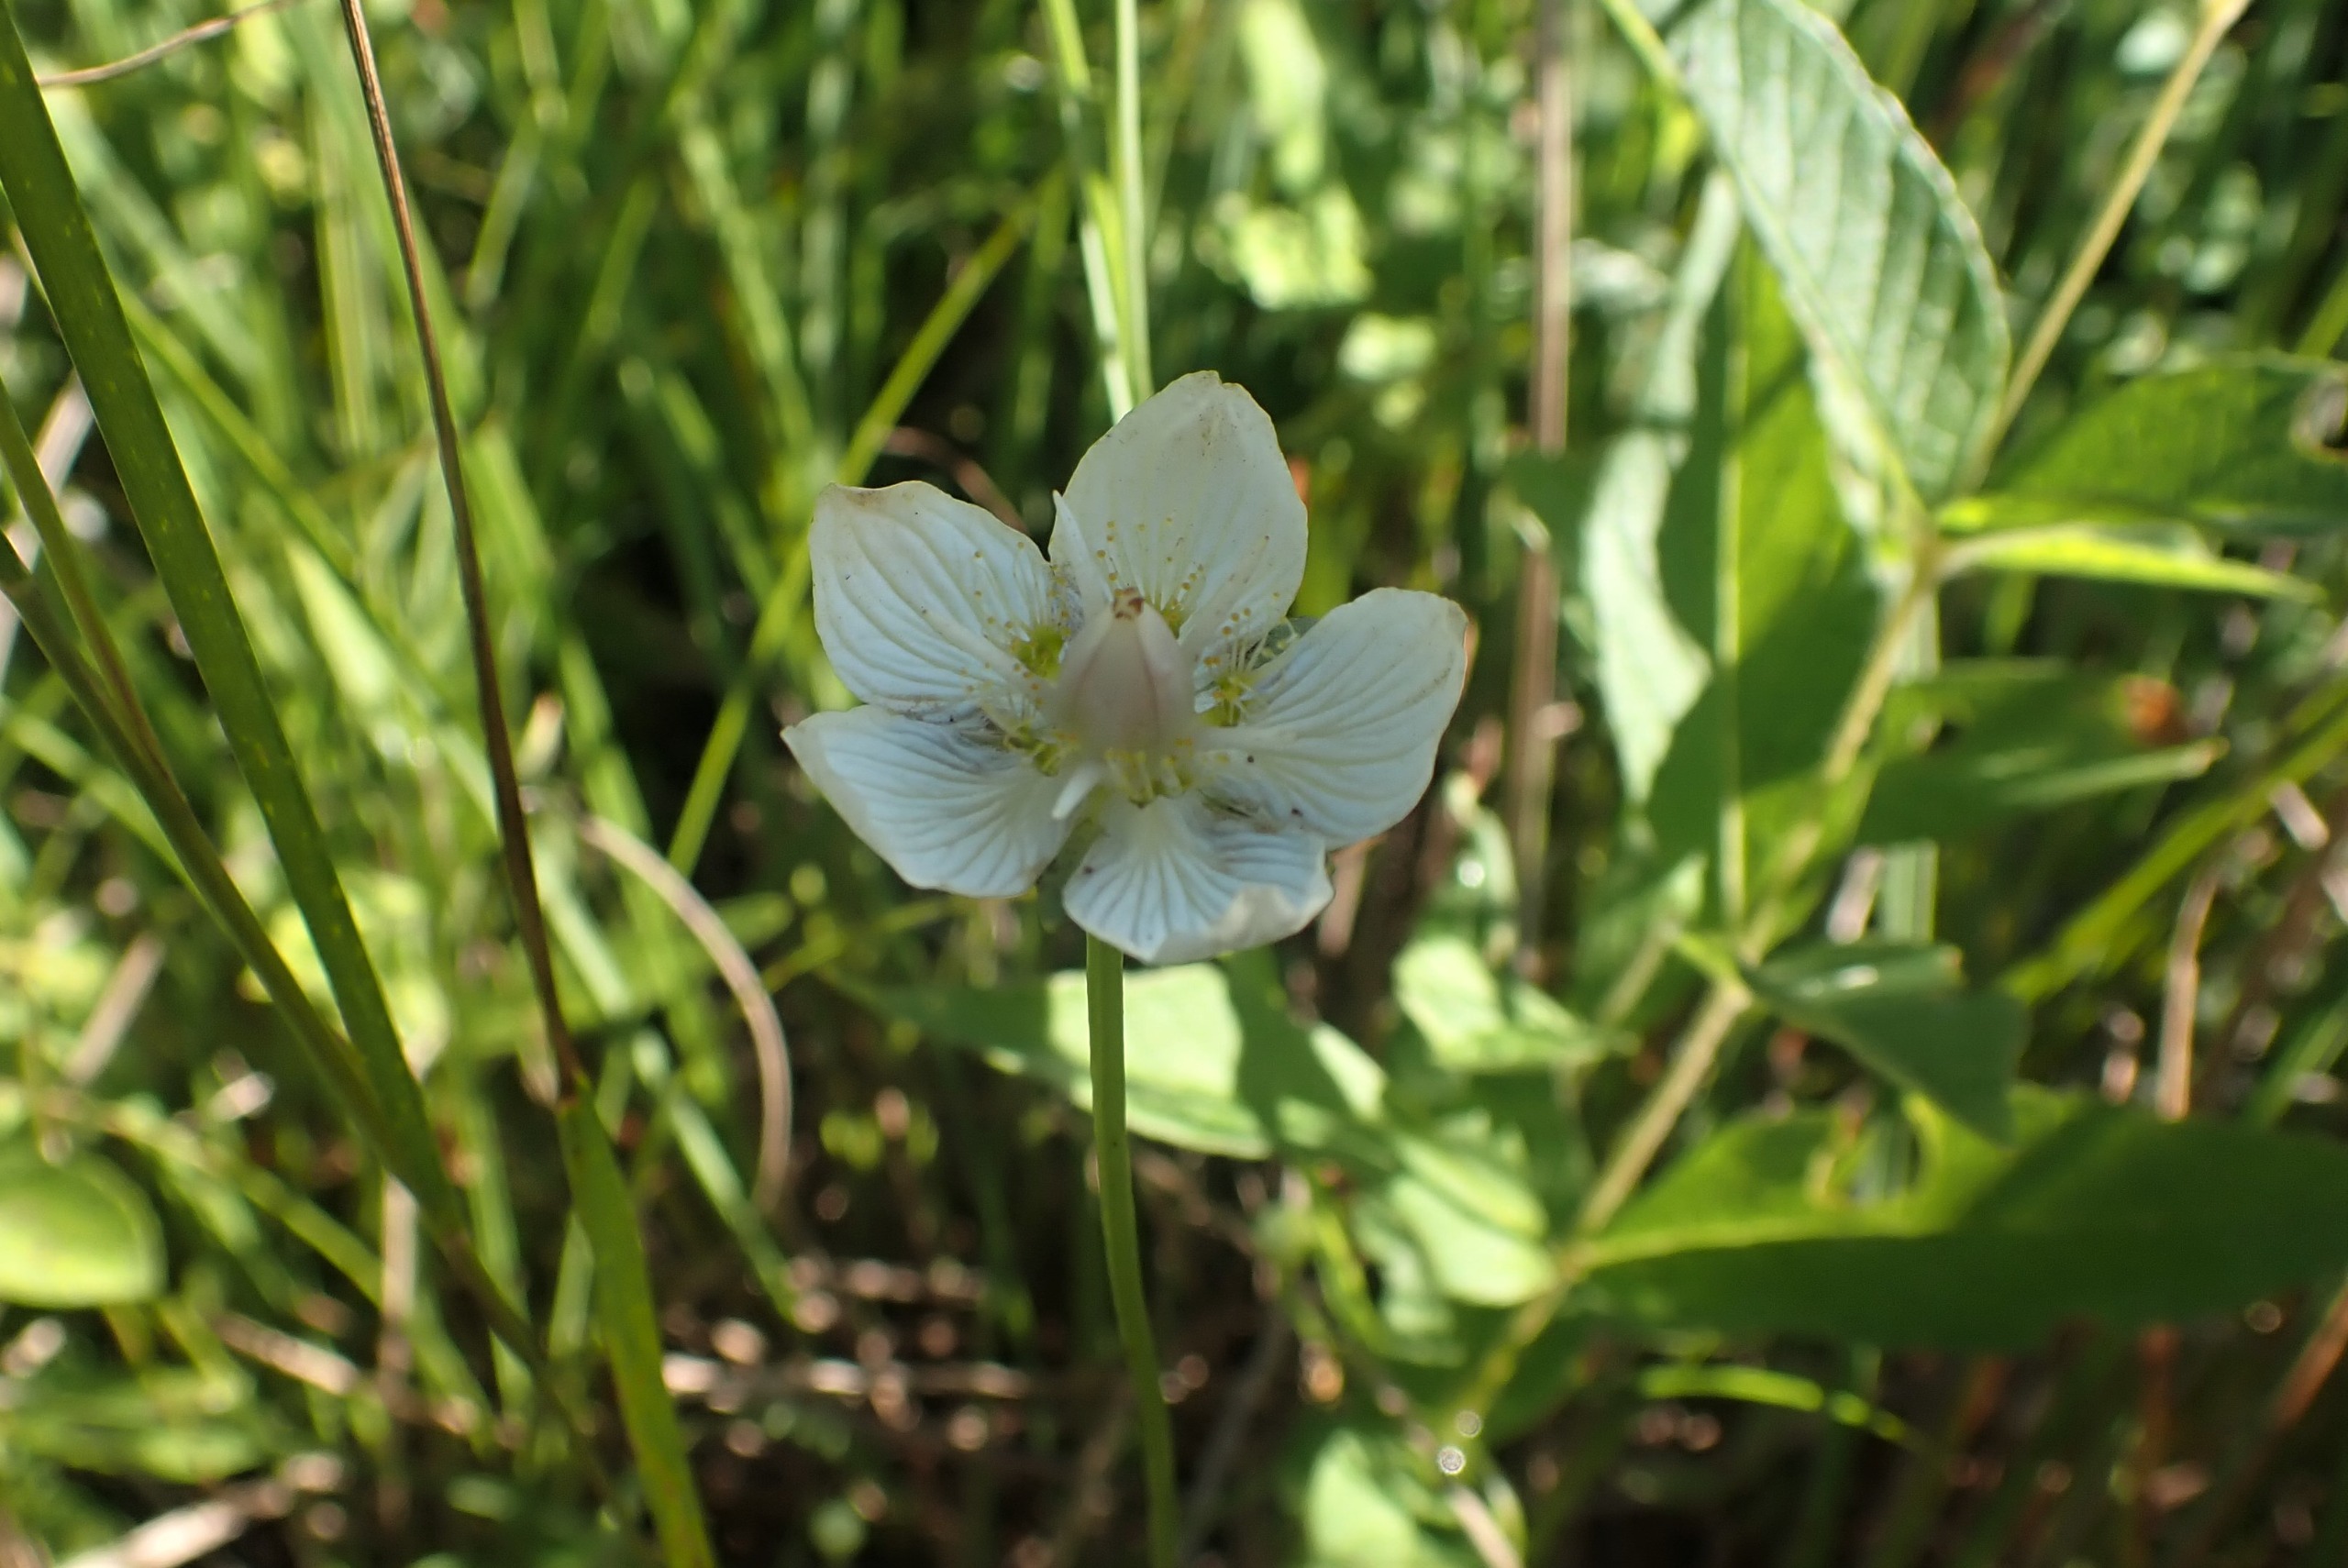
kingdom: Plantae
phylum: Tracheophyta
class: Magnoliopsida
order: Celastrales
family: Parnassiaceae
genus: Parnassia
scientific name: Parnassia palustris
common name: Leverurt
